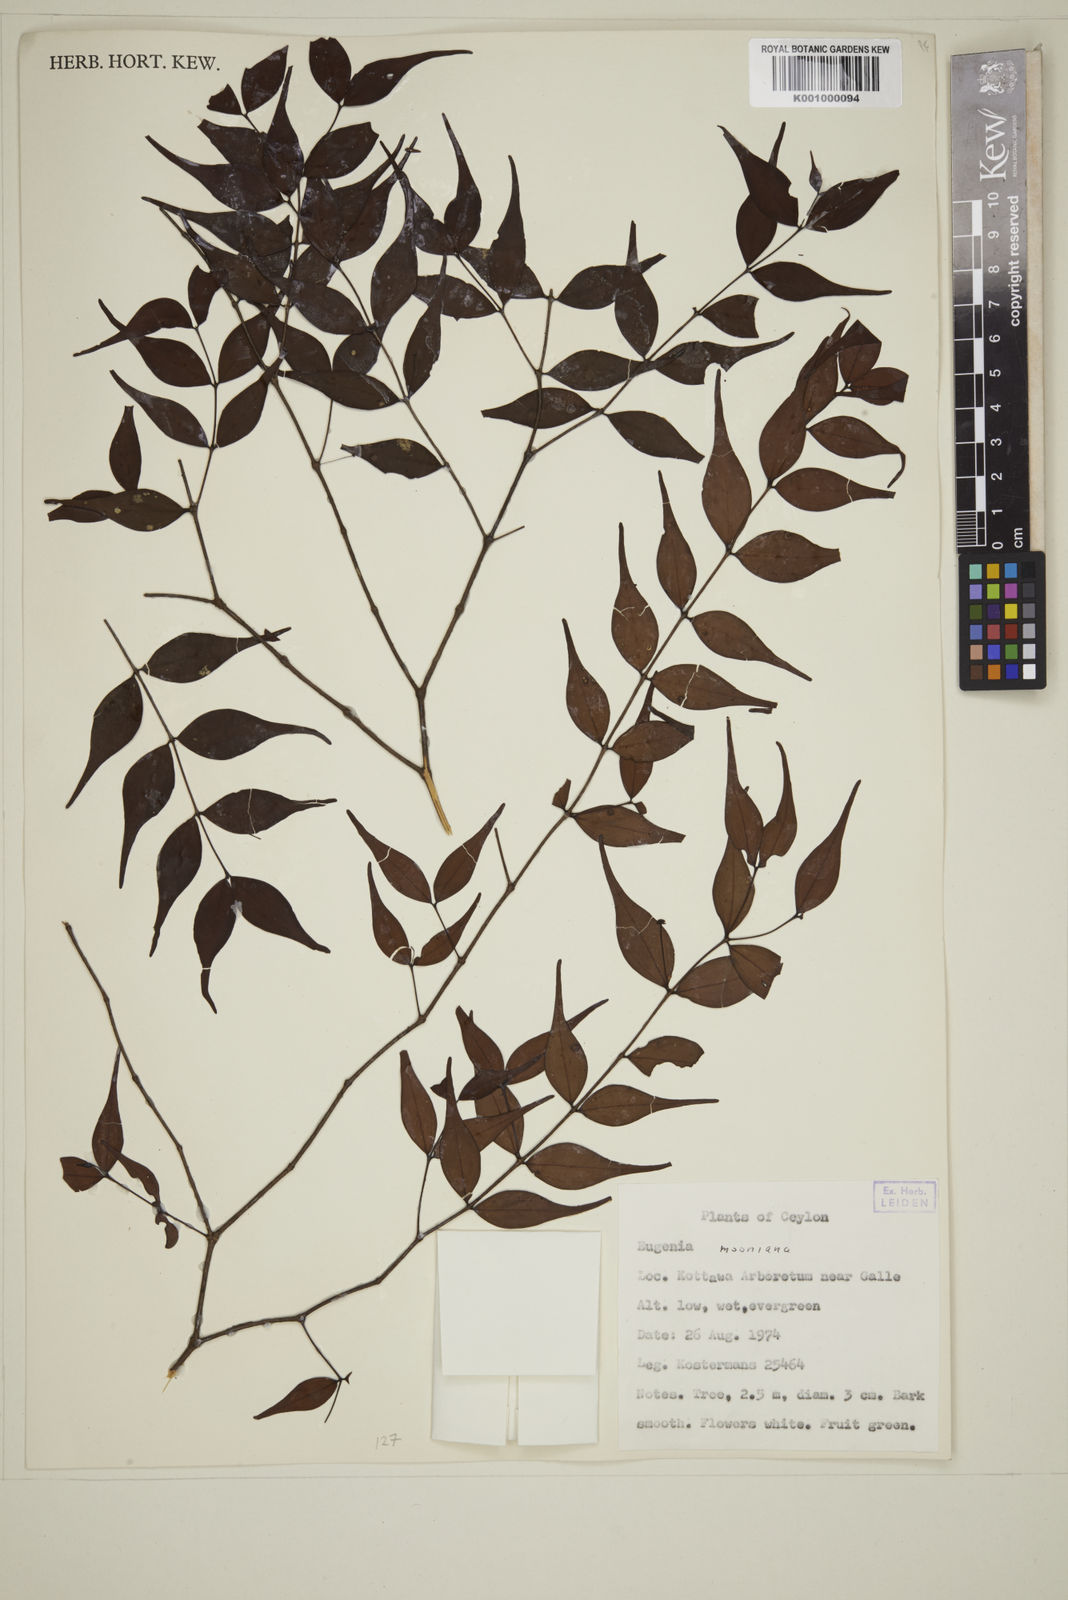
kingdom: Plantae
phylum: Tracheophyta
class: Magnoliopsida
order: Myrtales
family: Myrtaceae
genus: Eugenia
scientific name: Eugenia thwaitesii
